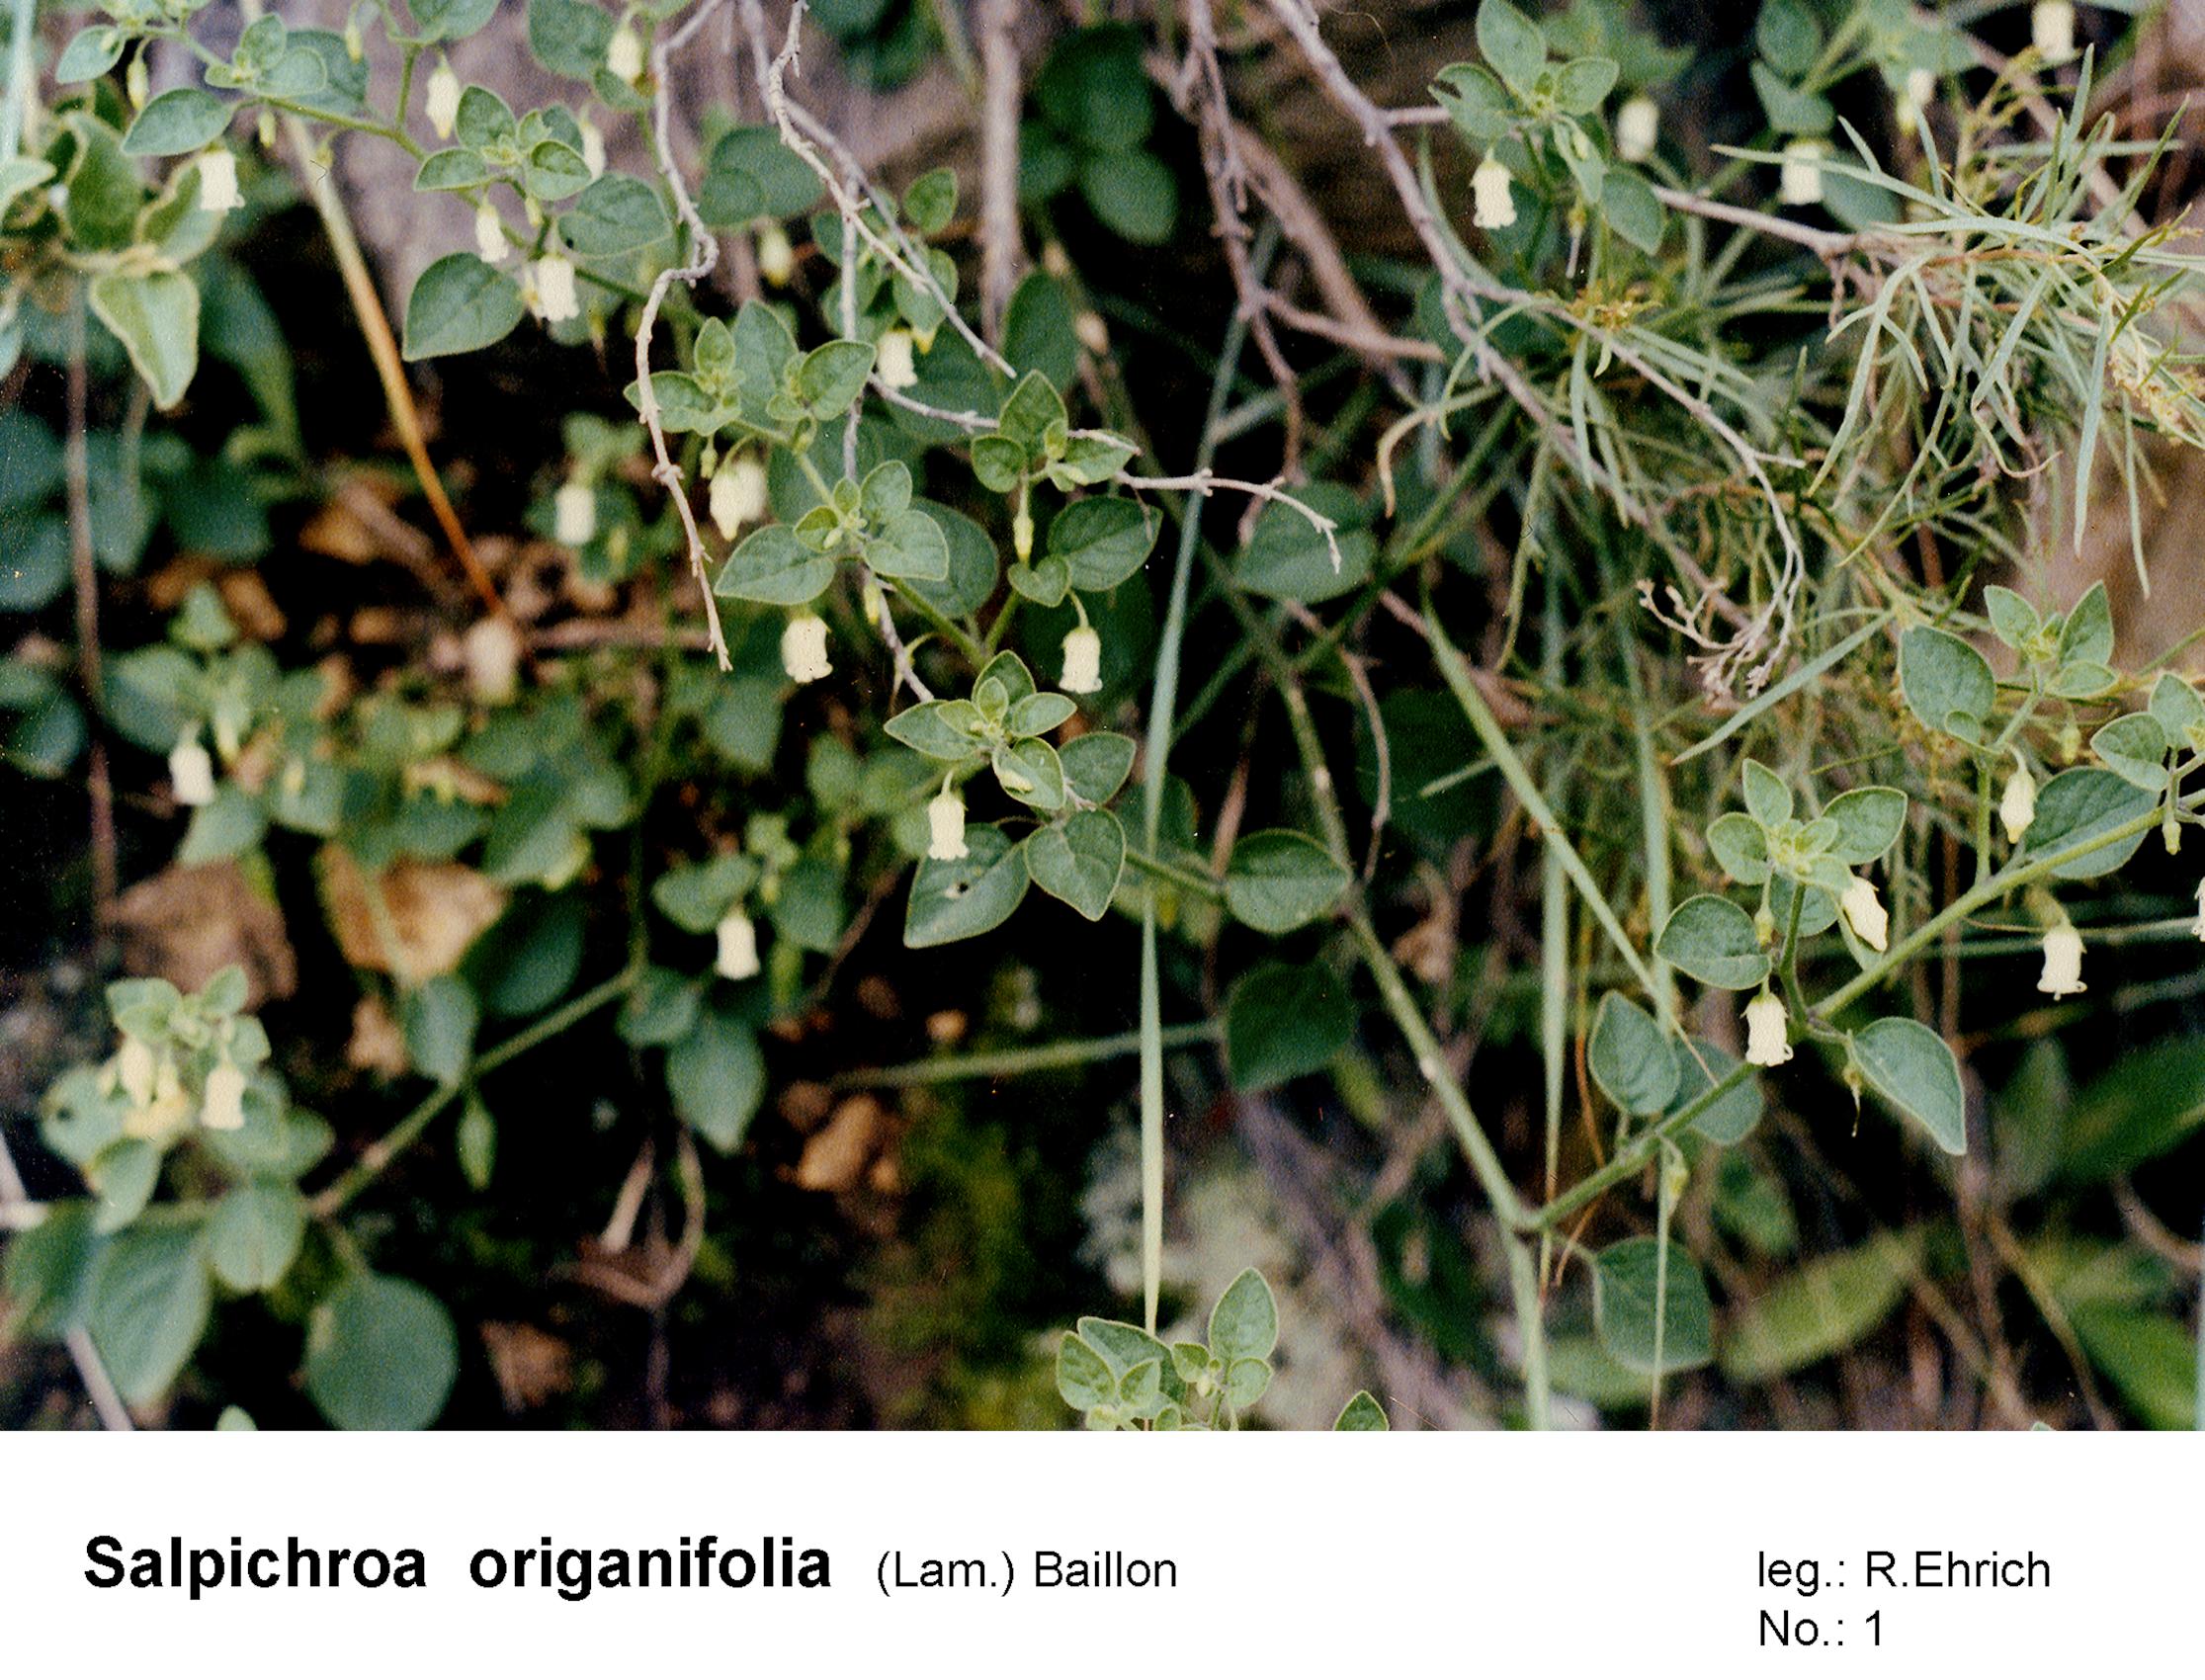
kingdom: Plantae
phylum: Tracheophyta
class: Magnoliopsida
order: Solanales
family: Solanaceae
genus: Salpichroa
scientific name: Salpichroa origanifolia
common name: Lily-of-the-valley-vine
